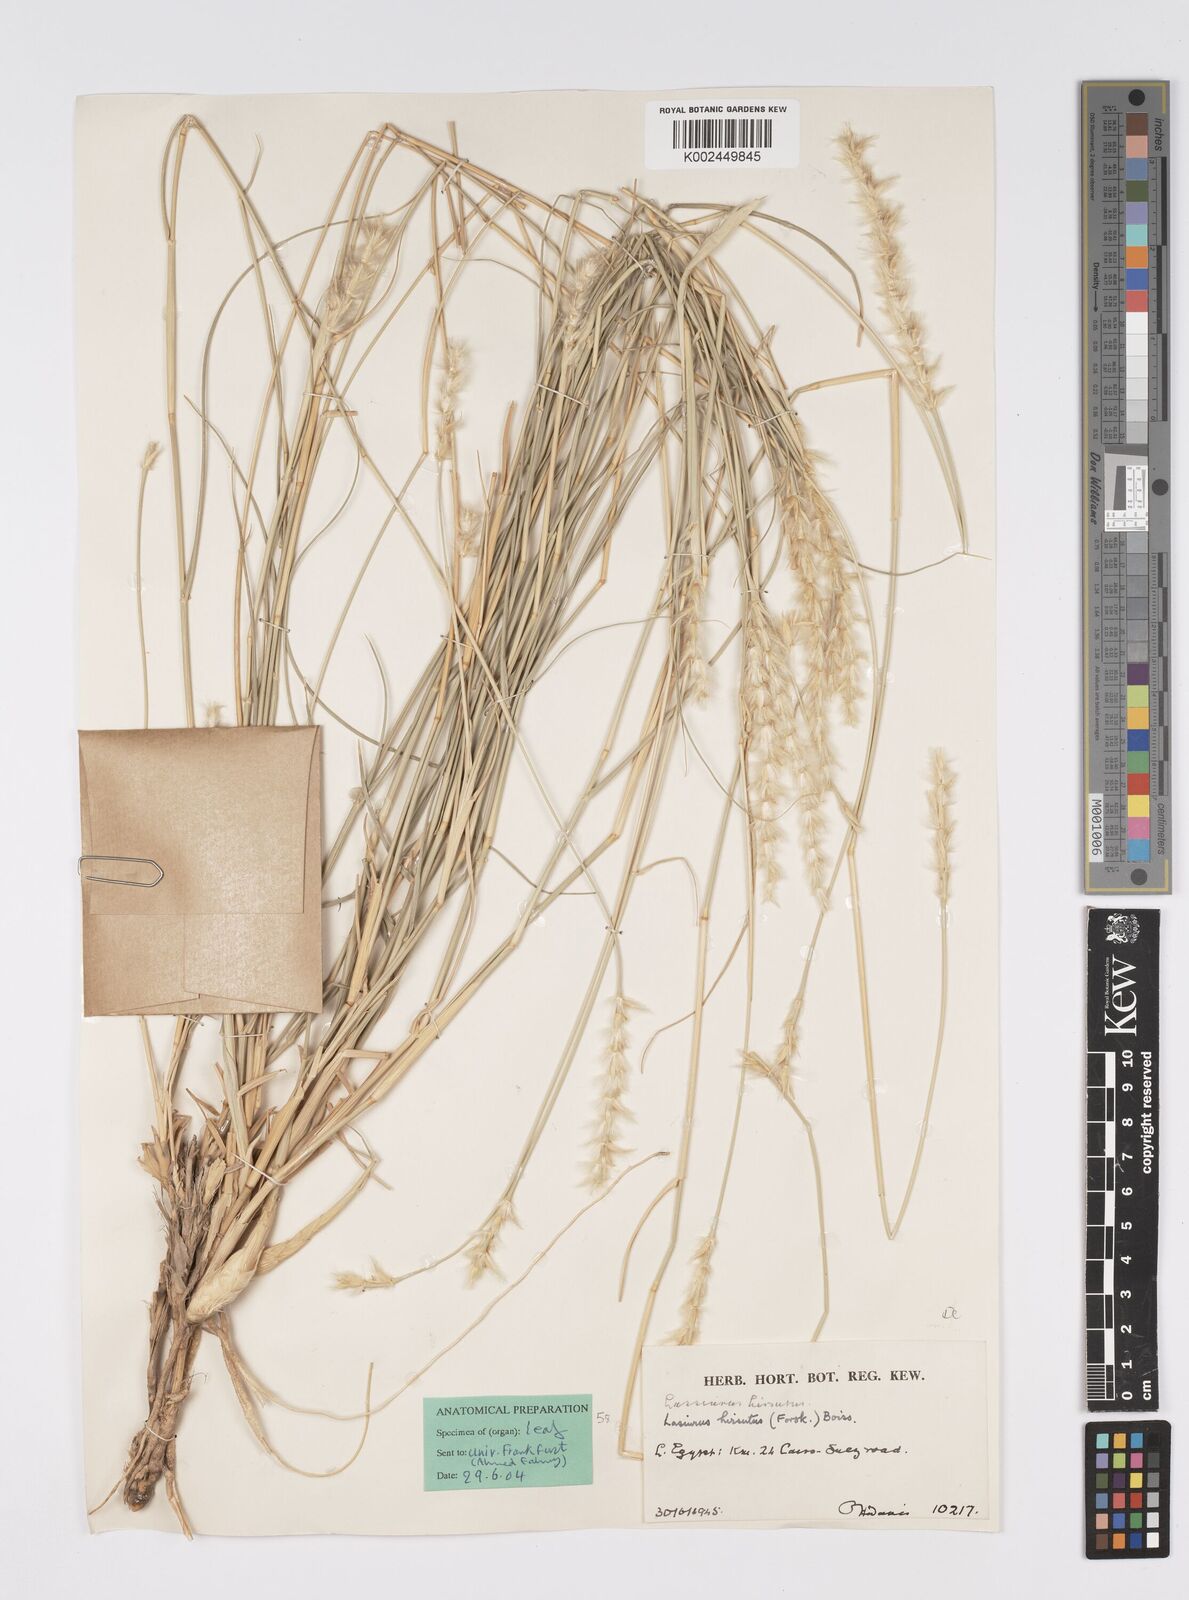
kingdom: Plantae
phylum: Tracheophyta
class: Liliopsida
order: Poales
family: Poaceae
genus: Lasiurus
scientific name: Lasiurus scindicus
